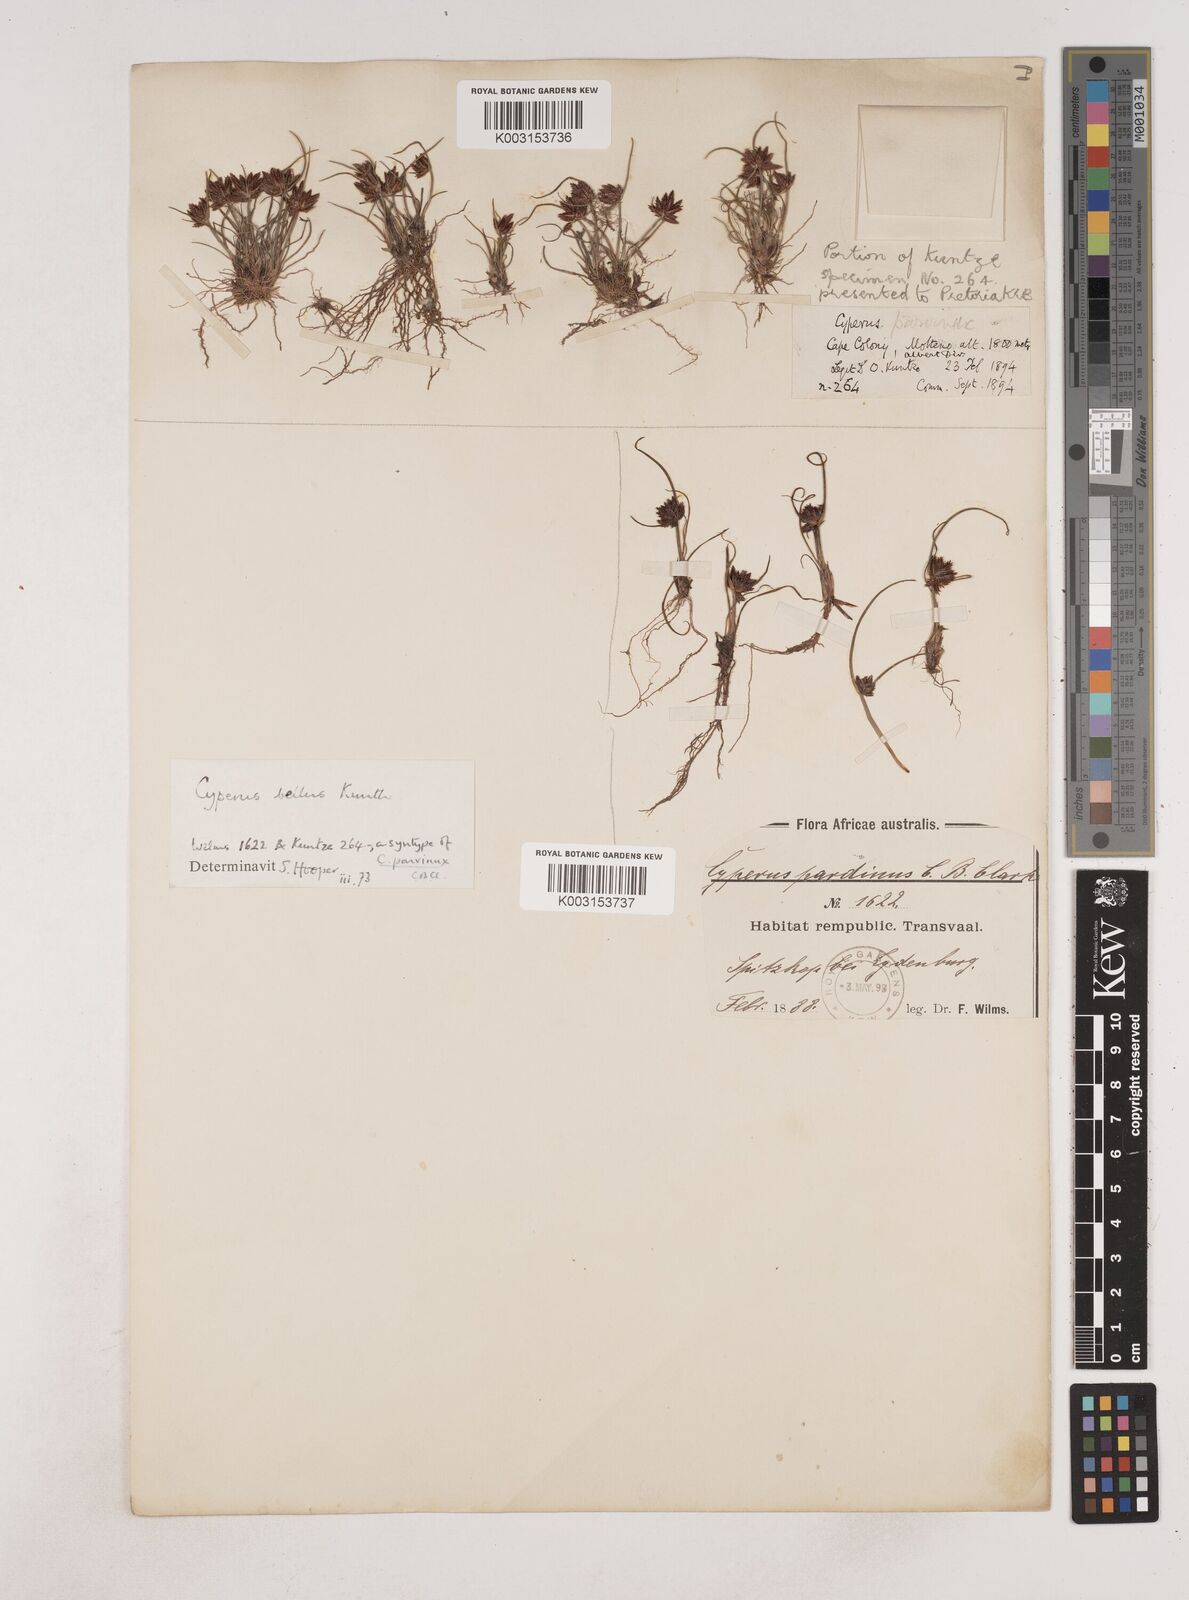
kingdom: Plantae
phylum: Tracheophyta
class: Liliopsida
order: Poales
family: Cyperaceae
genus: Cyperus
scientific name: Cyperus bellus
